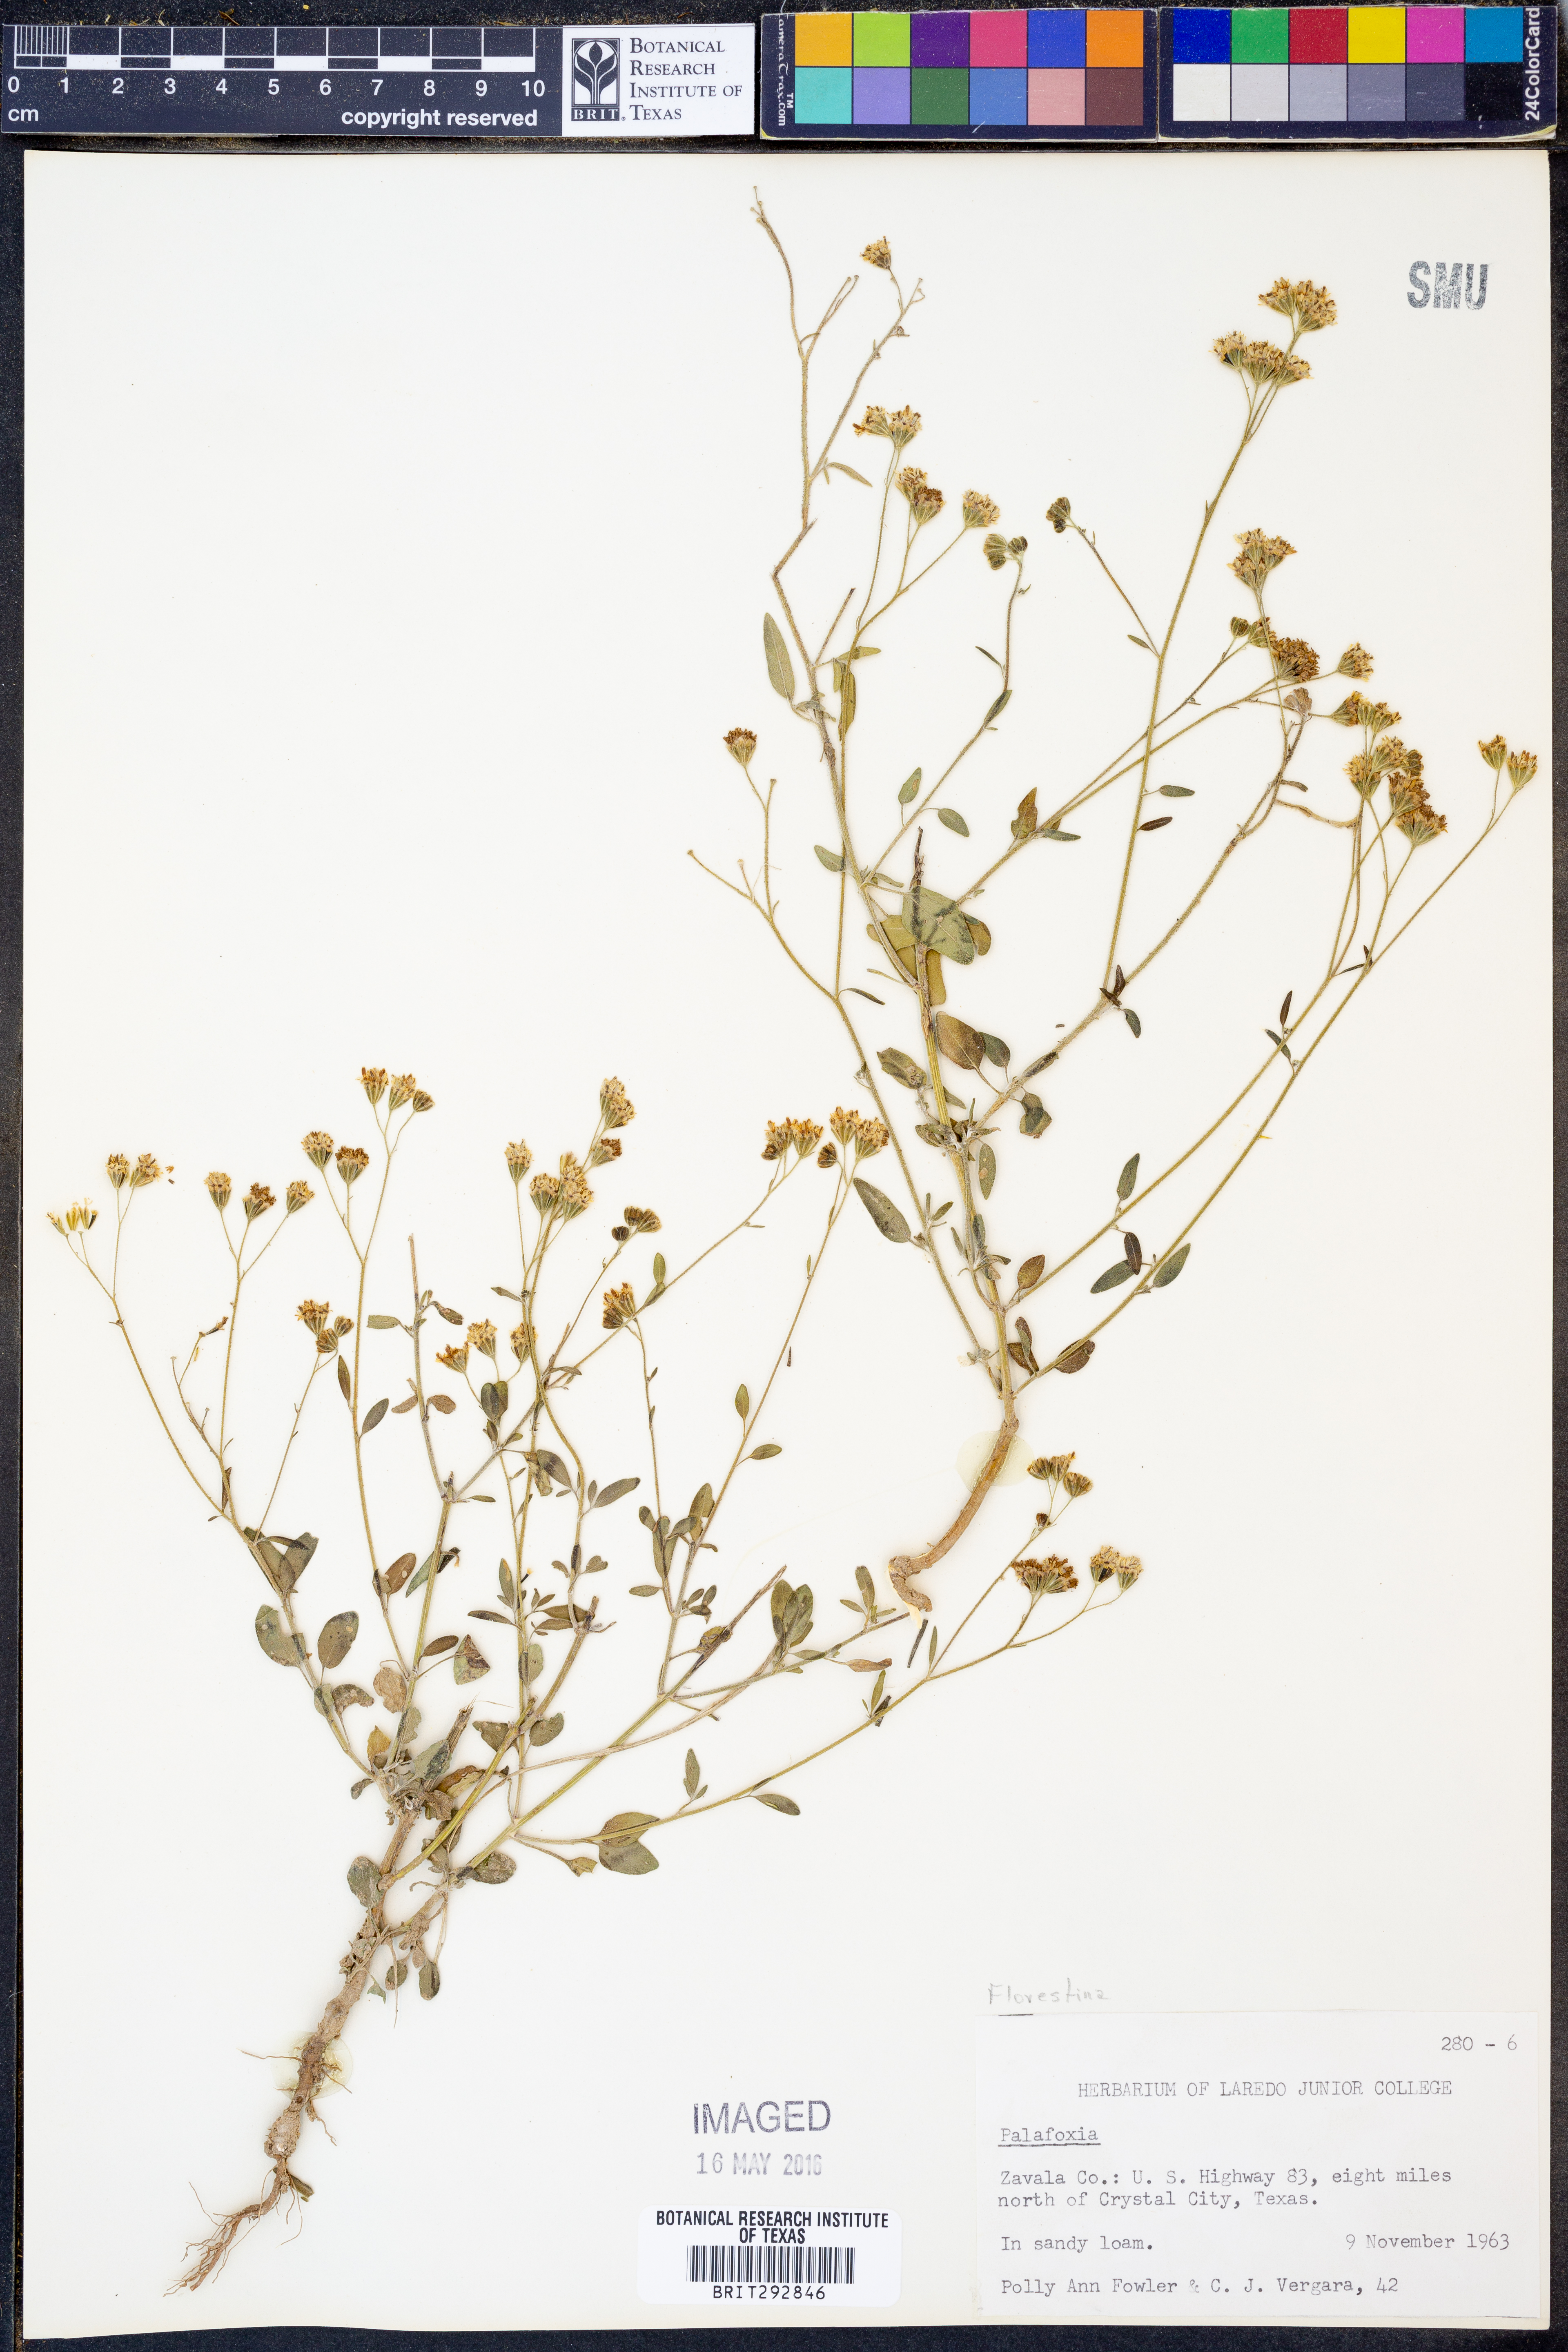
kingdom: Plantae
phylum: Tracheophyta
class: Magnoliopsida
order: Asterales
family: Asteraceae
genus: Florestina
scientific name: Florestina
